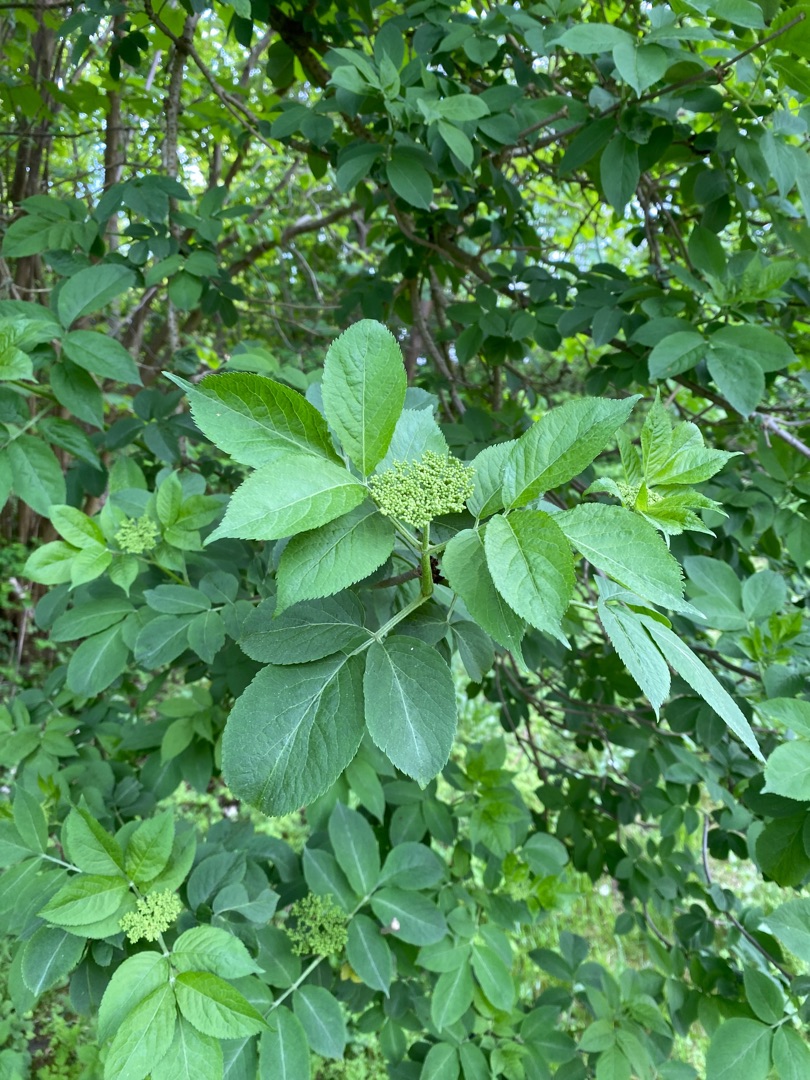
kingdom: Plantae
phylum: Tracheophyta
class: Magnoliopsida
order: Dipsacales
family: Viburnaceae
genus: Sambucus
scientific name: Sambucus nigra
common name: Almindelig hyld
